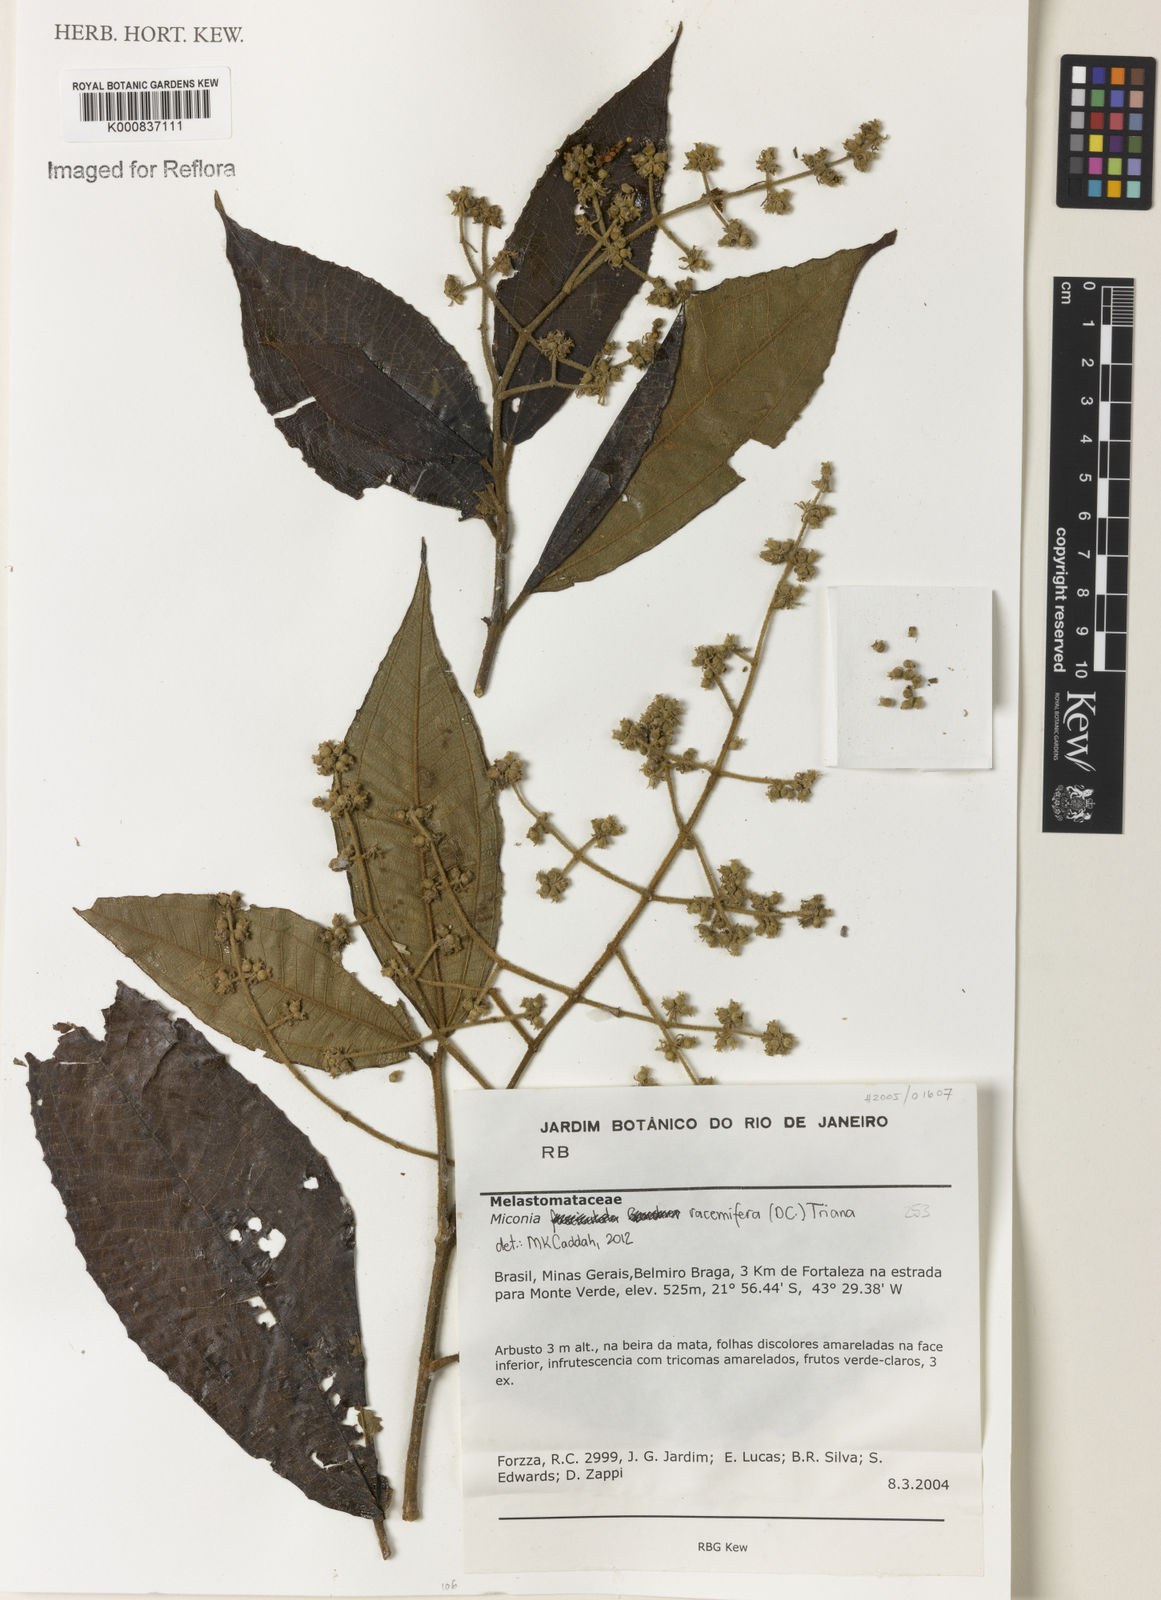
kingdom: Plantae
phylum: Tracheophyta
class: Magnoliopsida
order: Myrtales
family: Melastomataceae
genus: Miconia
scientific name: Miconia racemifera
